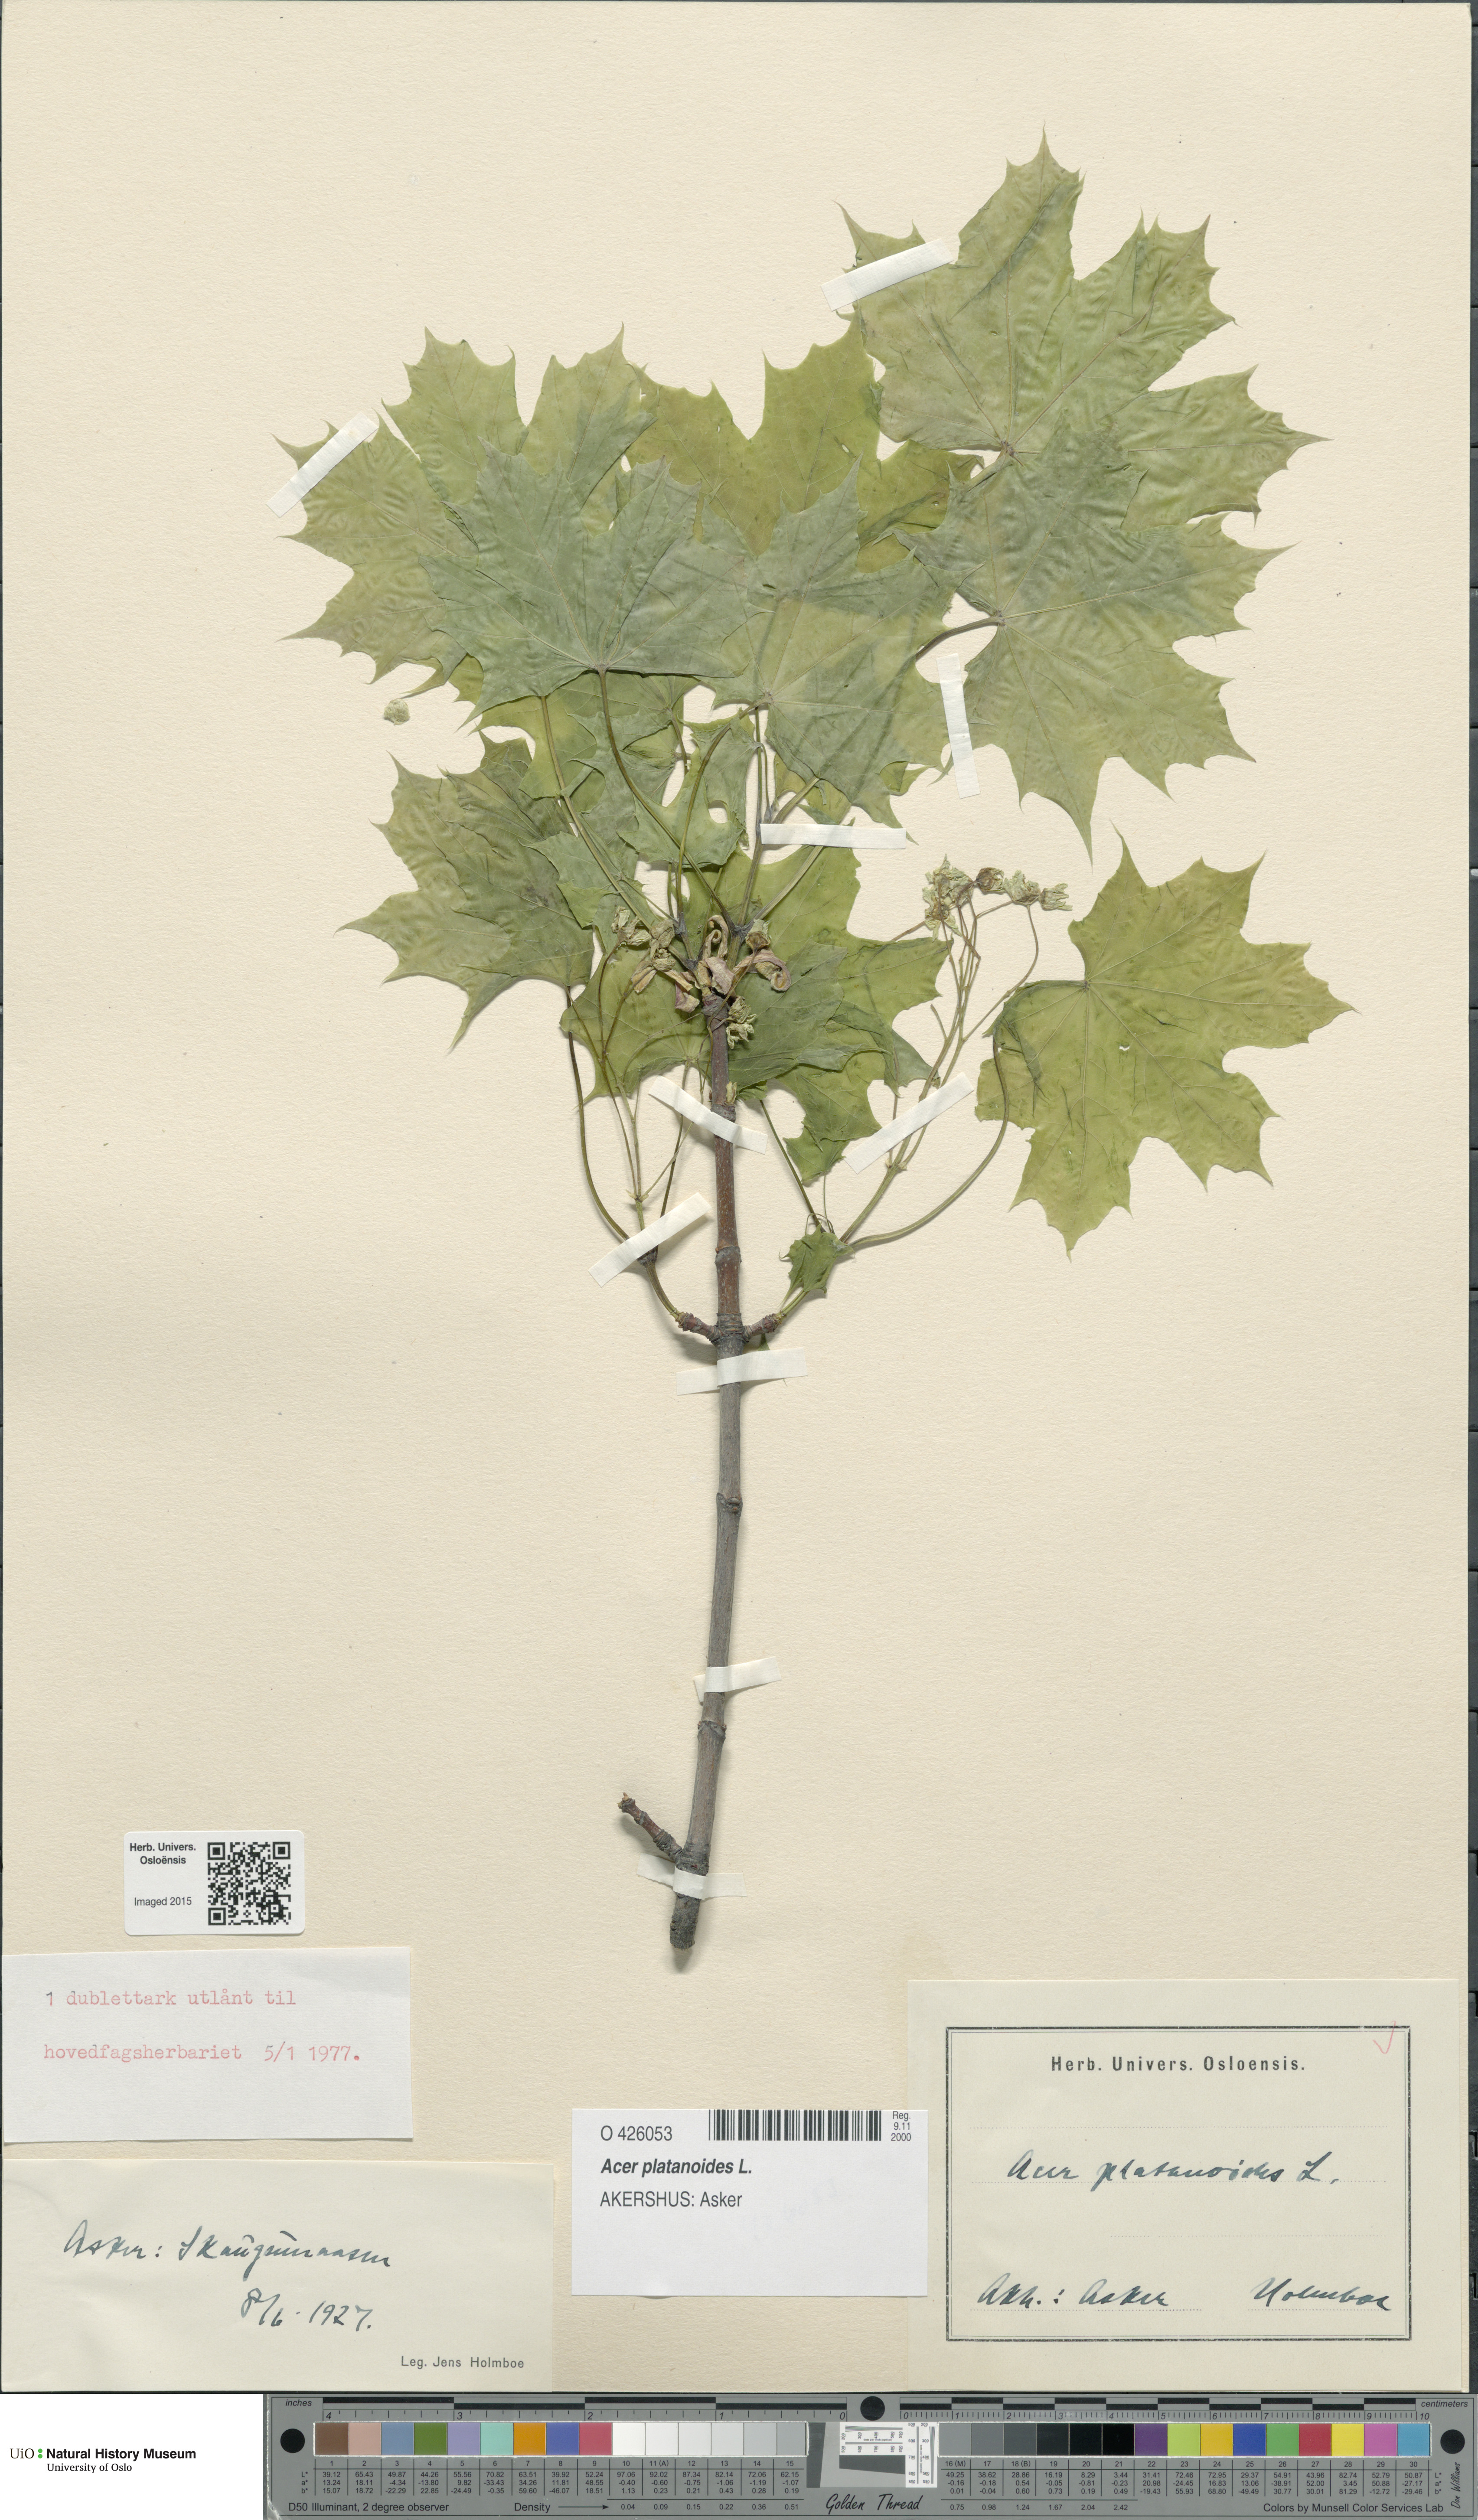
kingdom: Plantae
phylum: Tracheophyta
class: Magnoliopsida
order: Sapindales
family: Sapindaceae
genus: Acer
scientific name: Acer platanoides
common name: Norway maple
